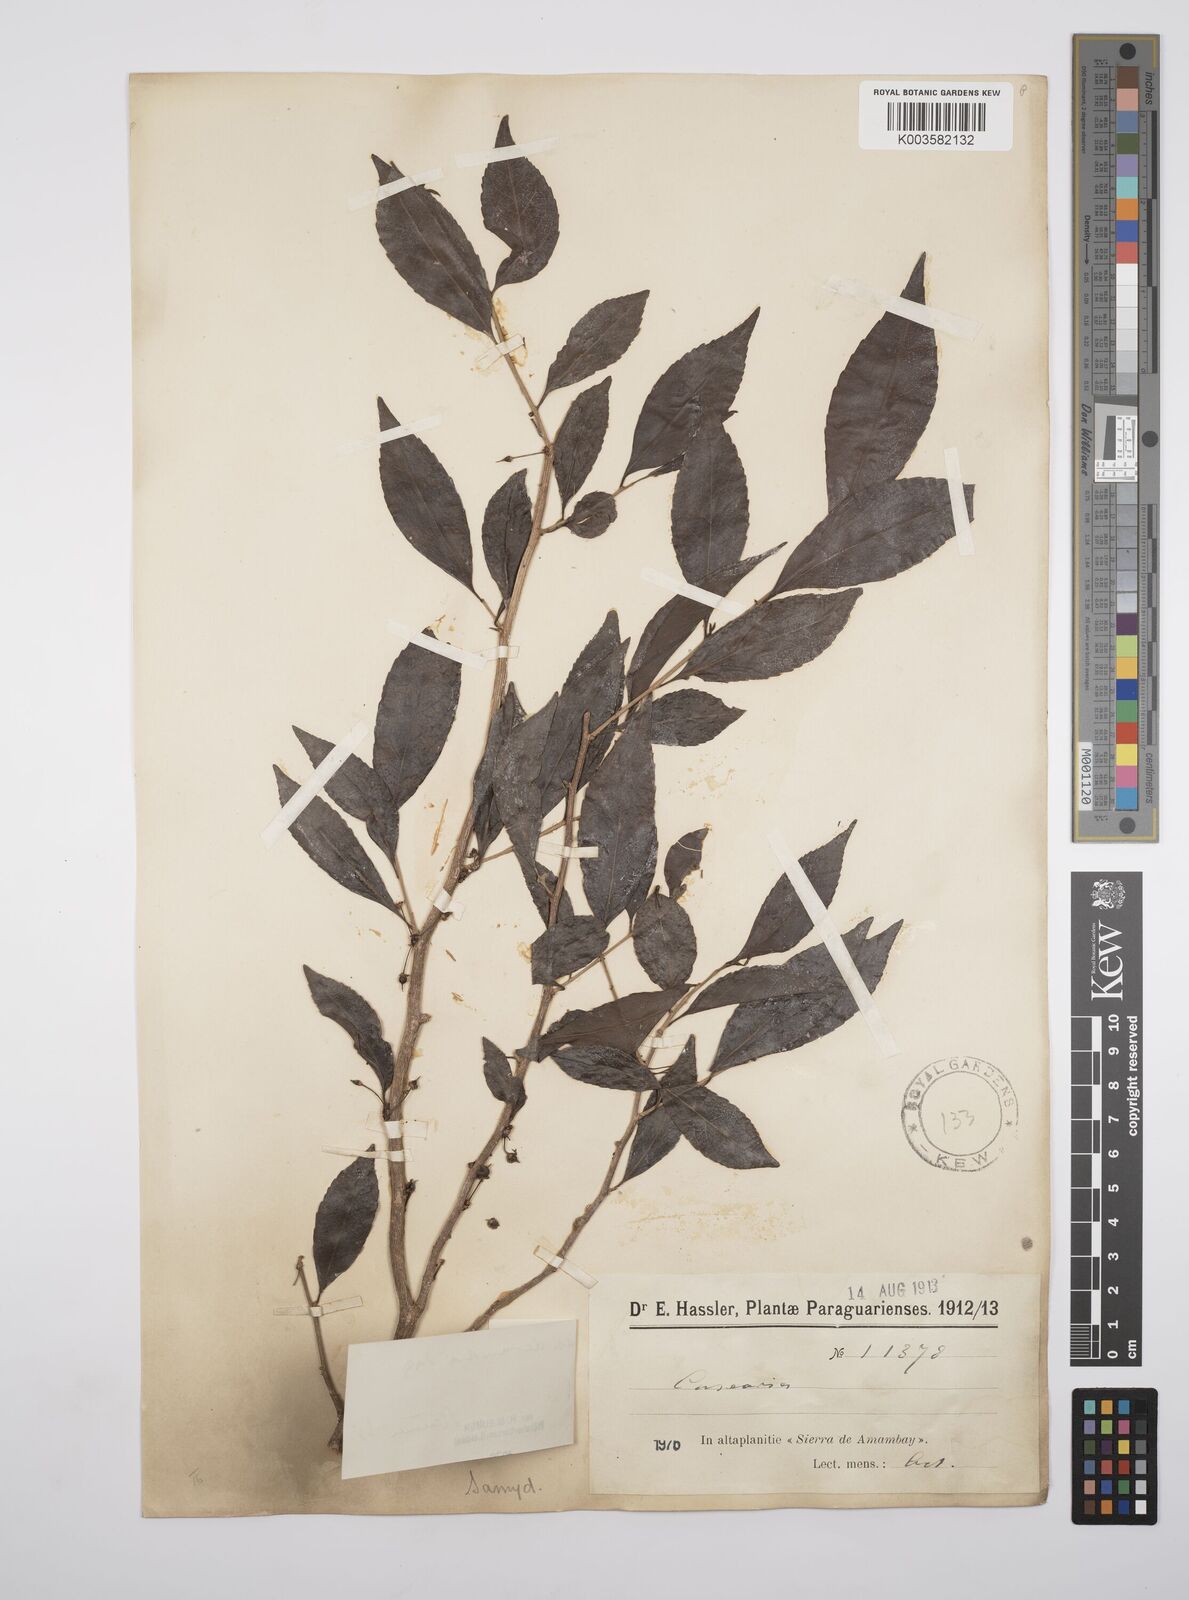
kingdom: Plantae
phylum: Tracheophyta
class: Magnoliopsida
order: Malpighiales
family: Salicaceae
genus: Casearia
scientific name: Casearia
